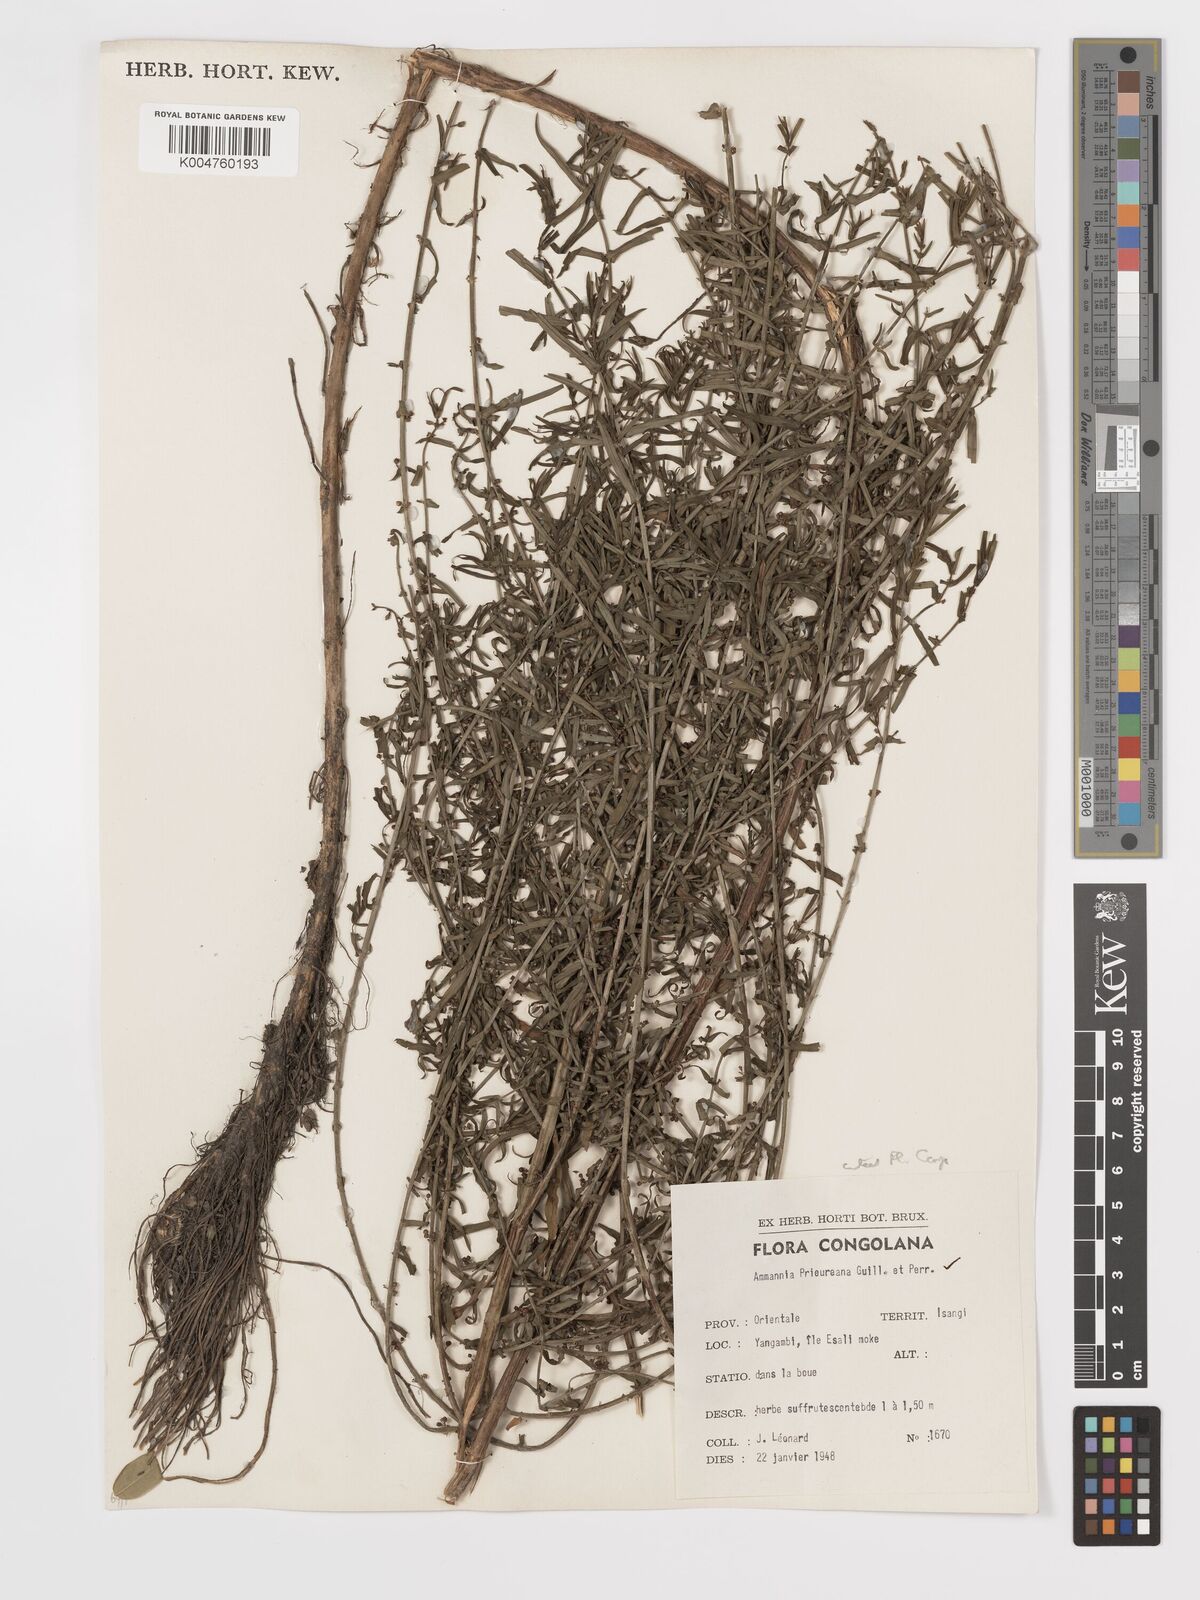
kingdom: Plantae
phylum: Tracheophyta
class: Magnoliopsida
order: Myrtales
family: Lythraceae
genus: Ammannia
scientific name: Ammannia prieuriana
